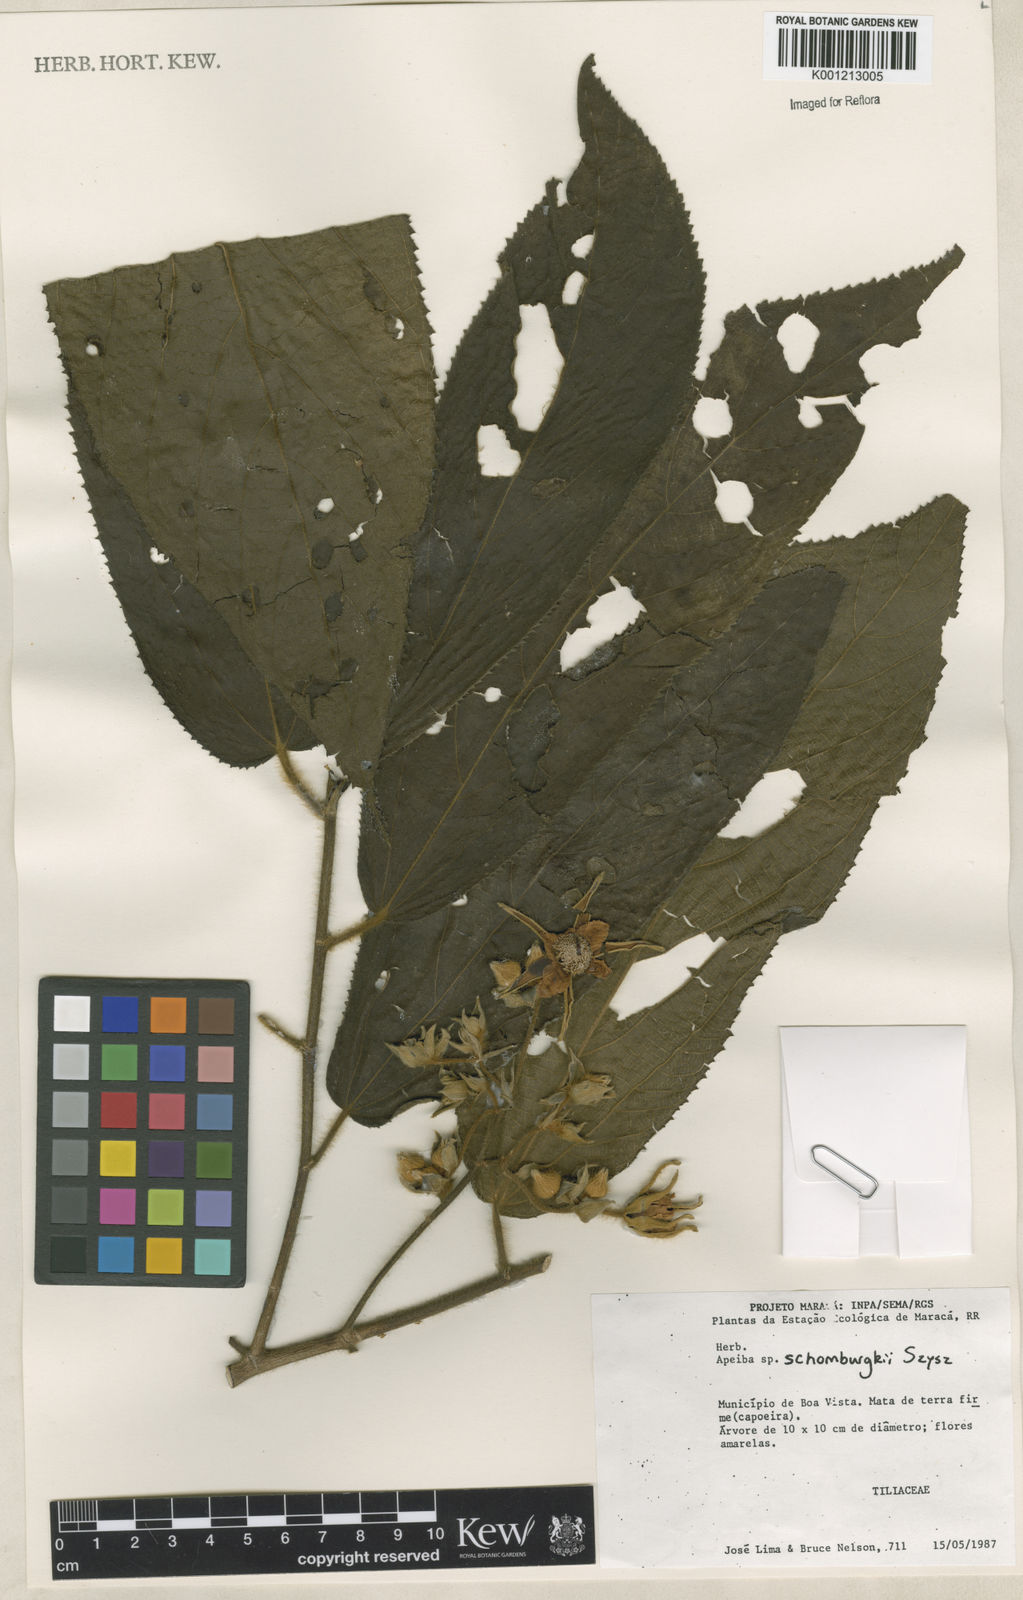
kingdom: Plantae
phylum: Tracheophyta
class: Magnoliopsida
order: Malvales
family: Malvaceae
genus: Apeiba
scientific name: Apeiba schomburgkii
